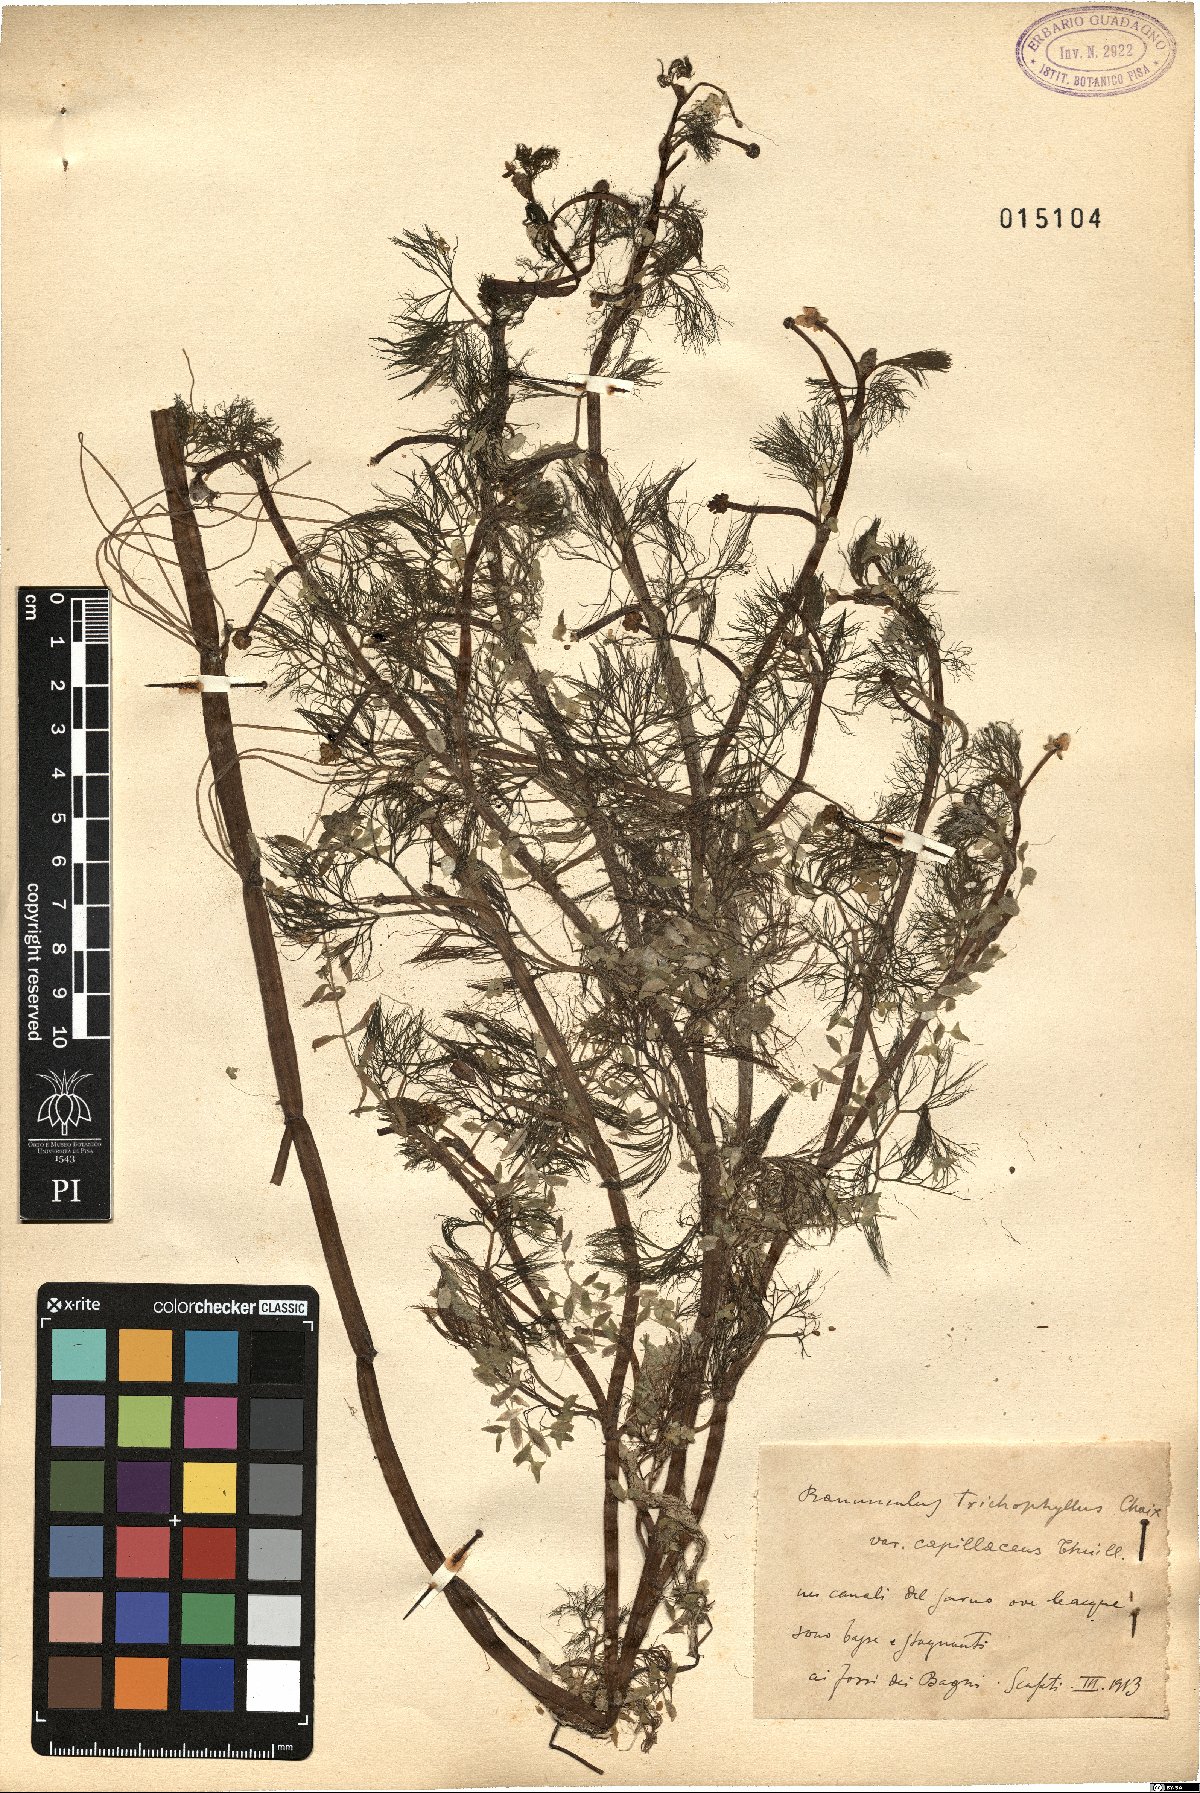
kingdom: Plantae
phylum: Tracheophyta
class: Magnoliopsida
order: Ranunculales
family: Ranunculaceae
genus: Ranunculus
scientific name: Ranunculus trichophyllus
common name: Thread-leaved water-crowfoot
